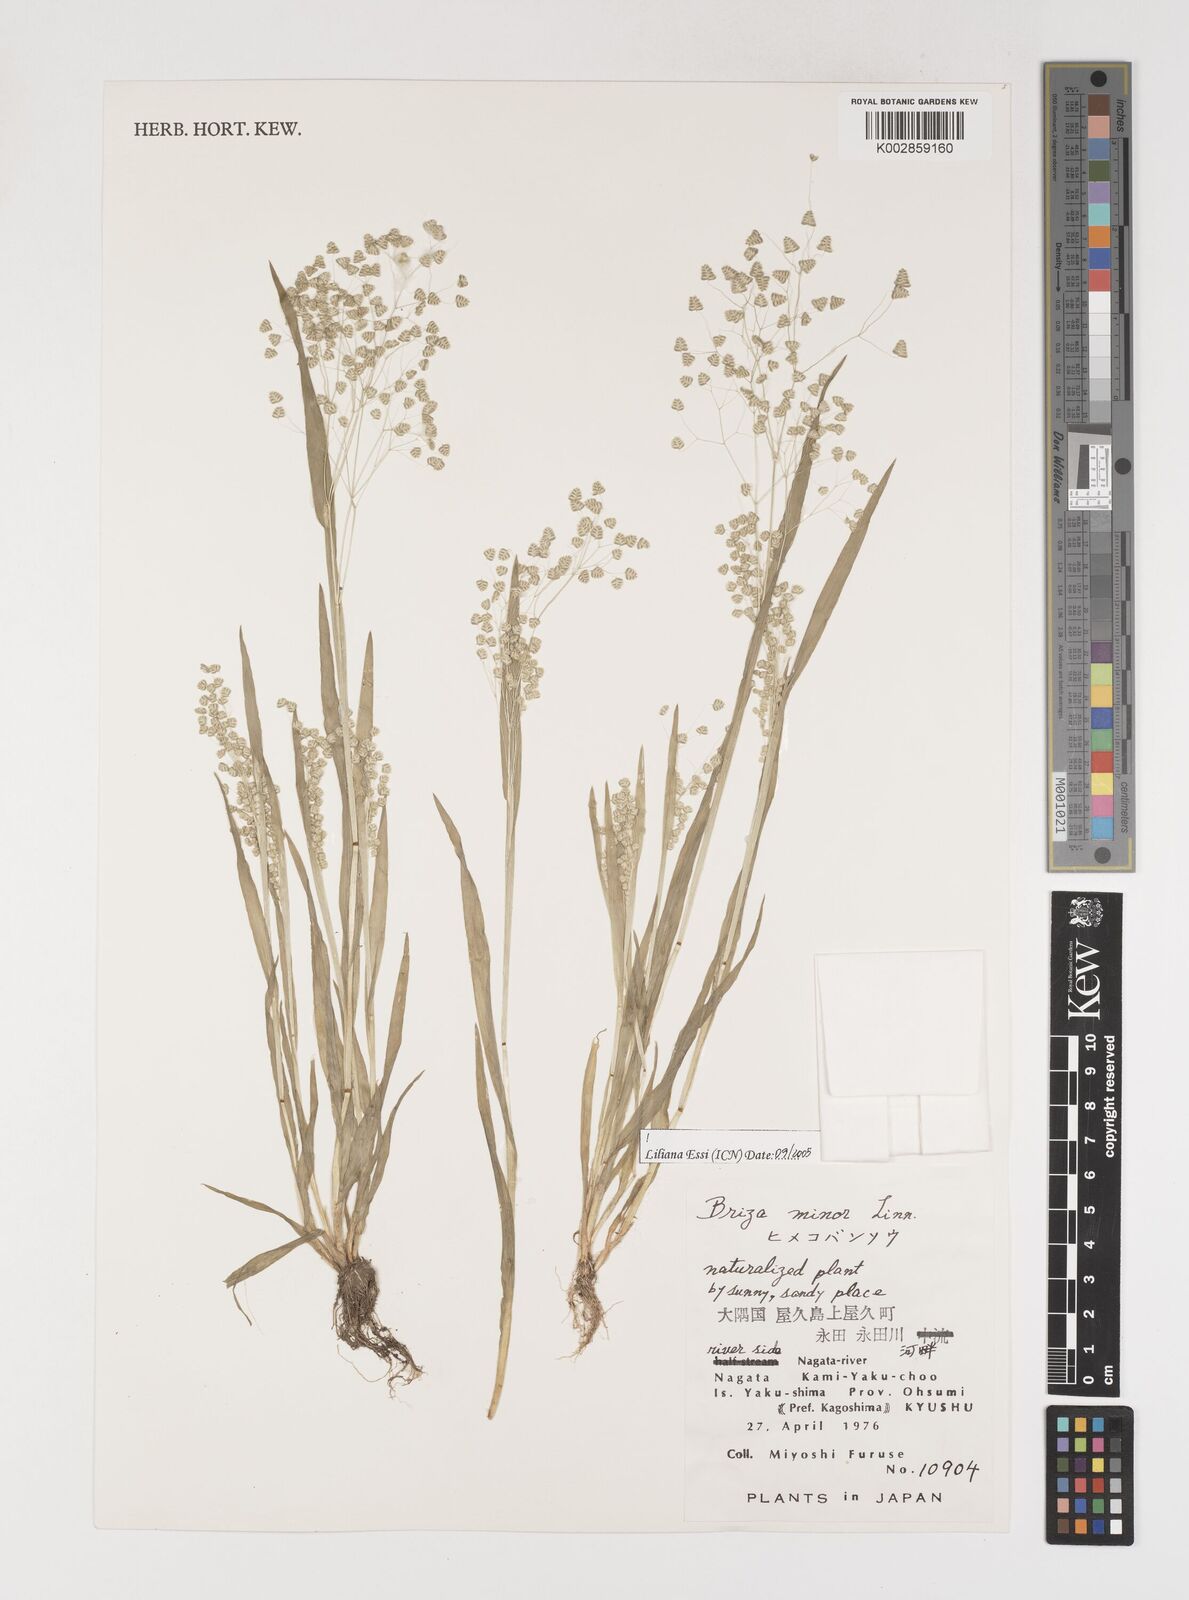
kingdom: Plantae
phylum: Tracheophyta
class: Liliopsida
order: Poales
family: Poaceae
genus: Briza
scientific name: Briza minor
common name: Lesser quaking-grass
